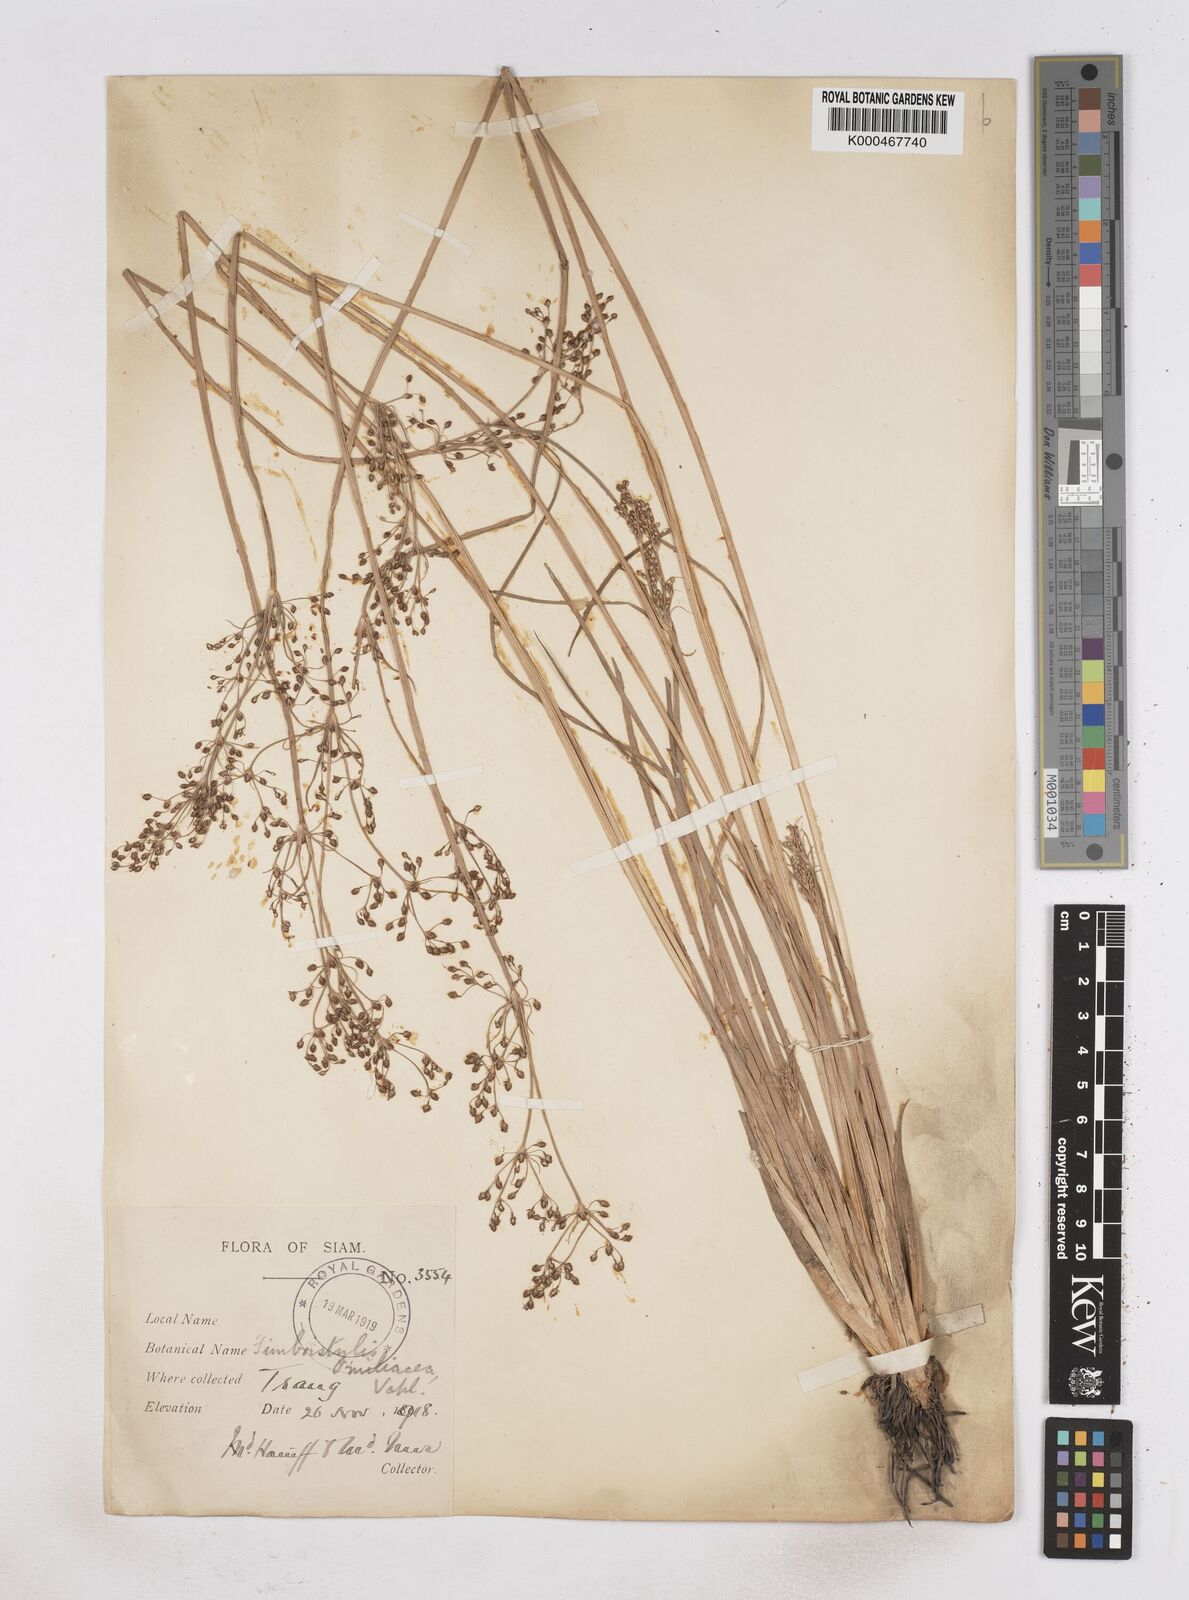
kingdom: Plantae
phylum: Tracheophyta
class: Liliopsida
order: Poales
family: Cyperaceae
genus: Fimbristylis
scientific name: Fimbristylis quinquangularis
